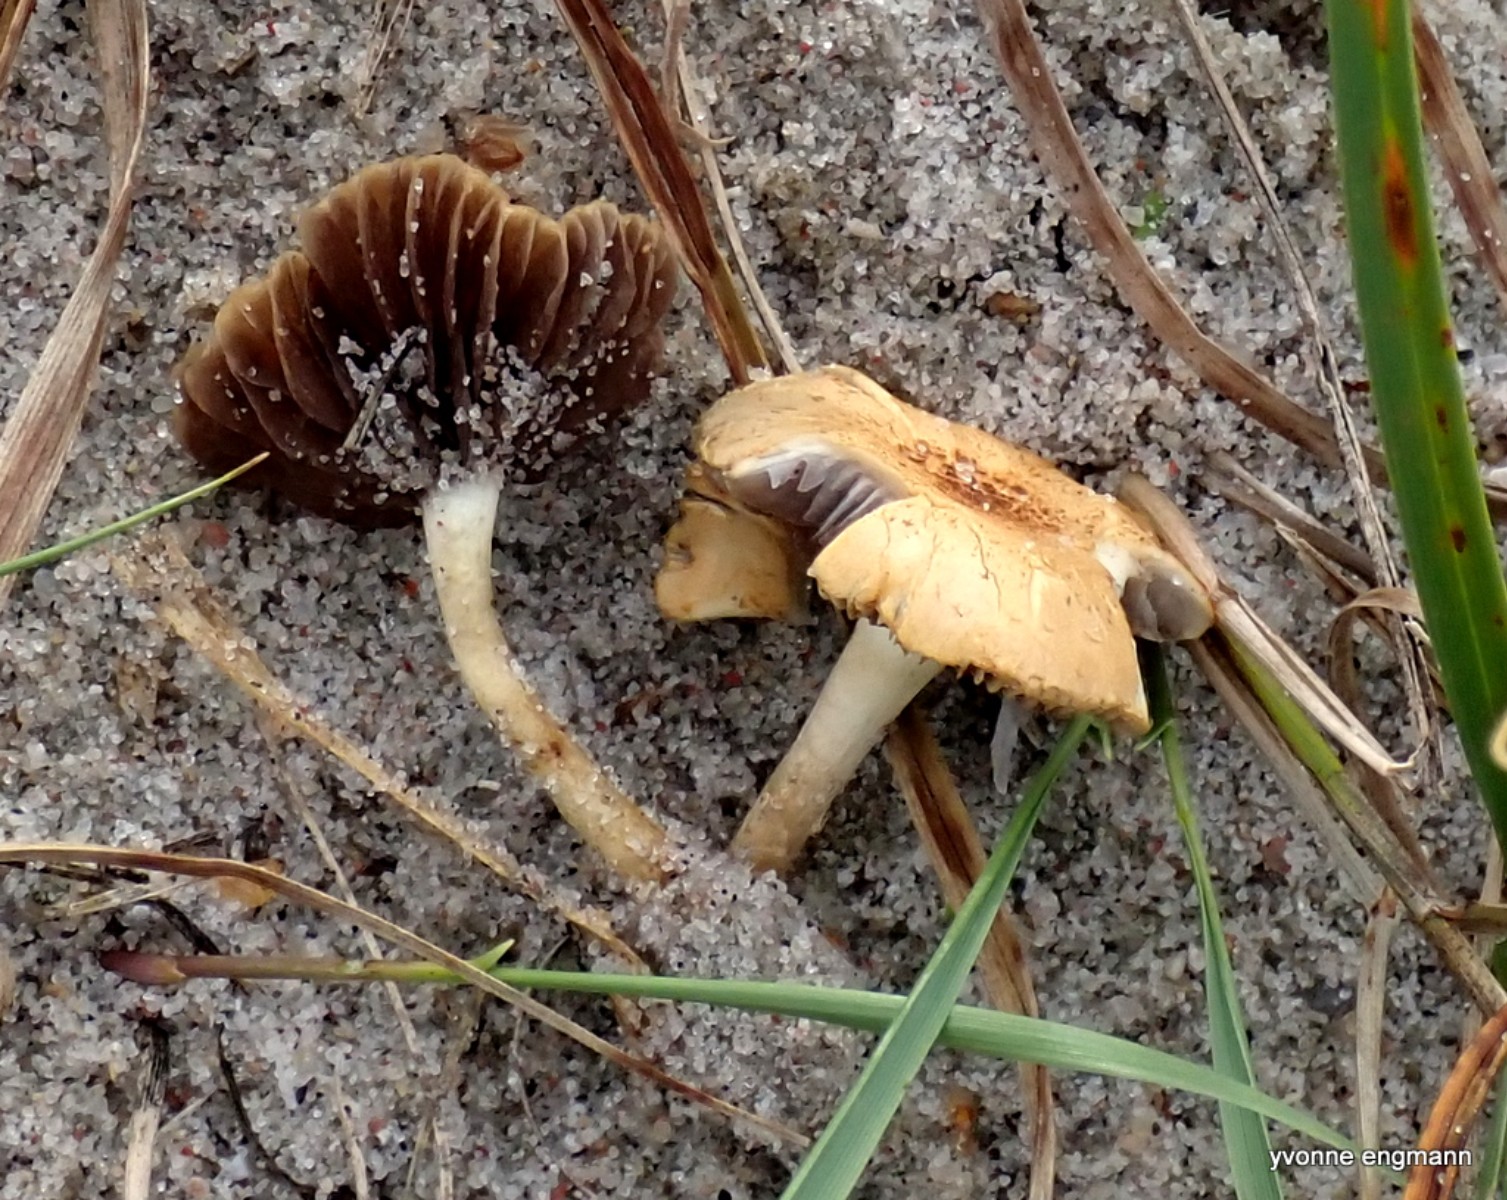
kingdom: Fungi
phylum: Basidiomycota
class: Agaricomycetes
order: Agaricales
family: Strophariaceae
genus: Agrocybe
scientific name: Agrocybe
